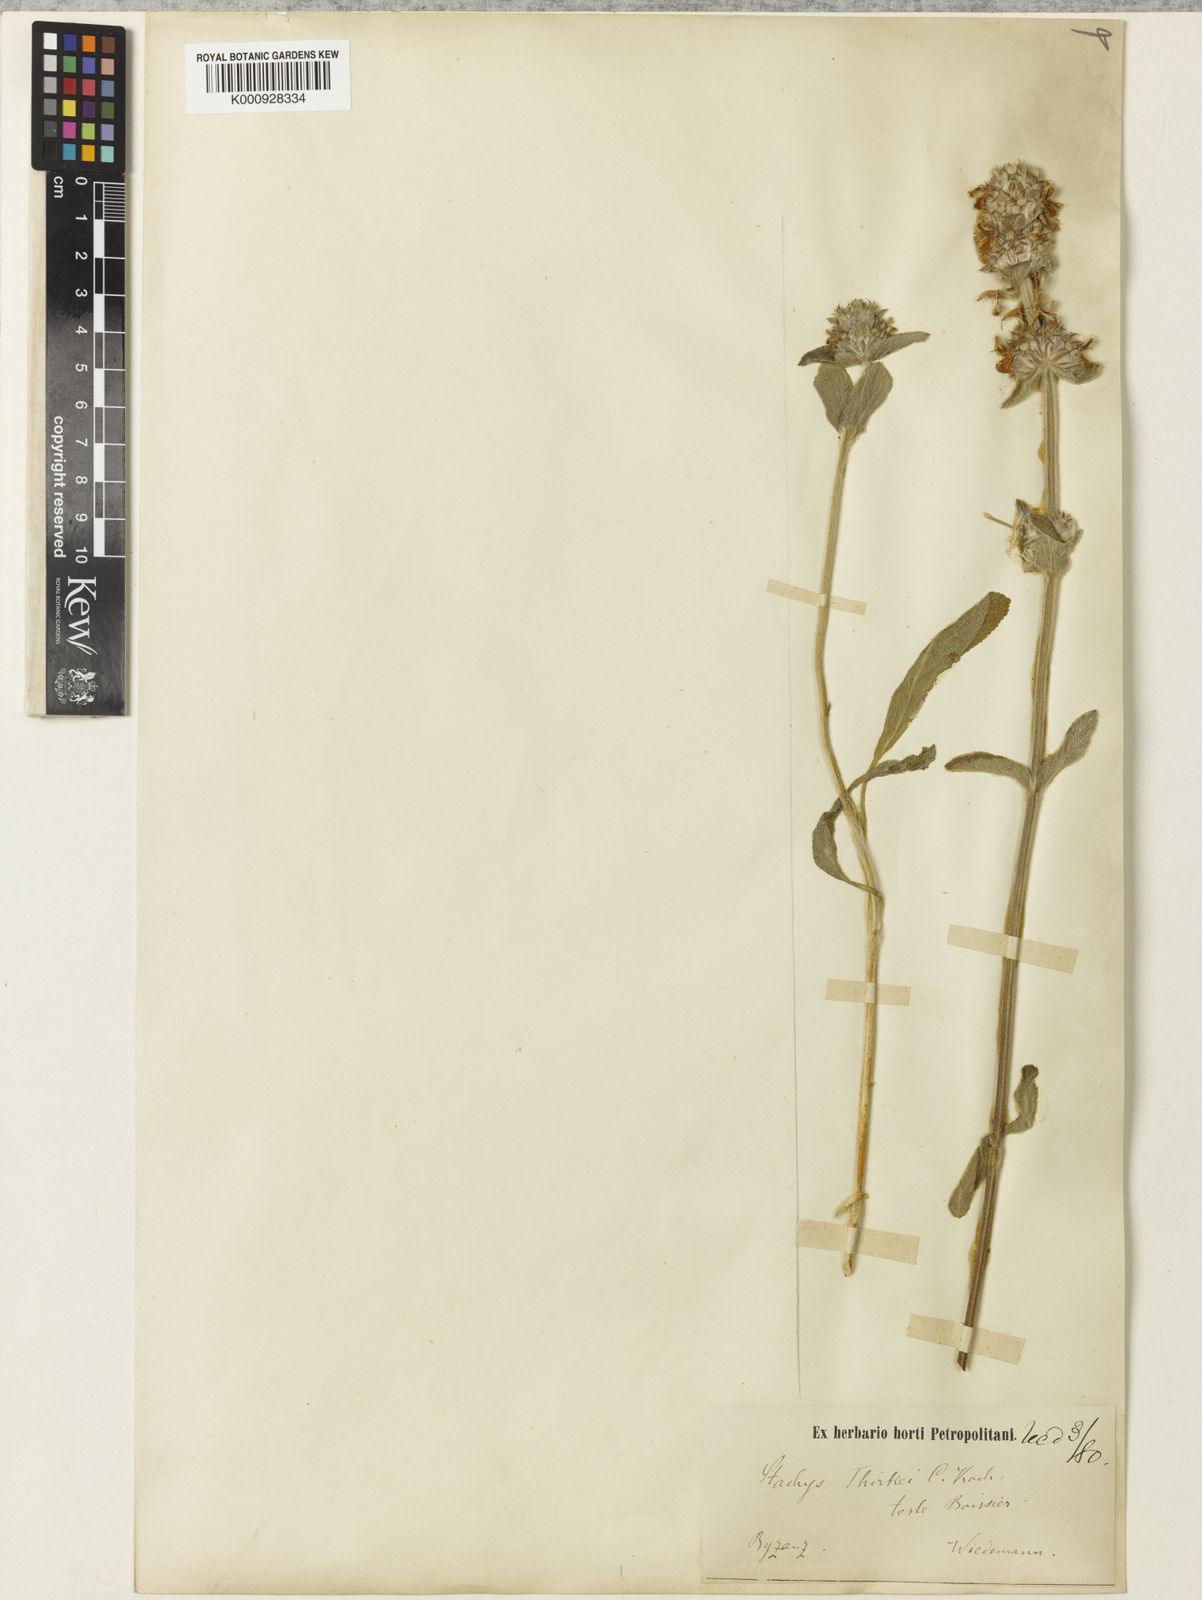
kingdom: Plantae
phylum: Tracheophyta
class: Magnoliopsida
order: Lamiales
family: Lamiaceae
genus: Stachys
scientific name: Stachys thirkei
